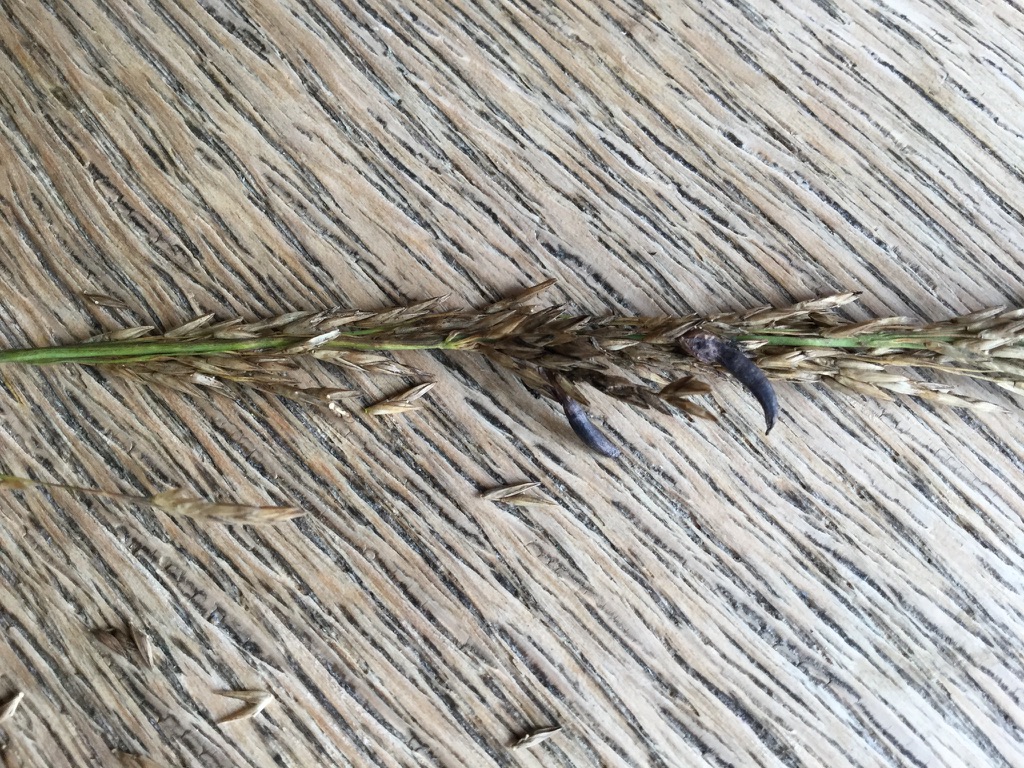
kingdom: Fungi
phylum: Ascomycota
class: Sordariomycetes
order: Hypocreales
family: Clavicipitaceae
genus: Claviceps
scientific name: Claviceps purpurea
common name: almindelig meldrøjer
